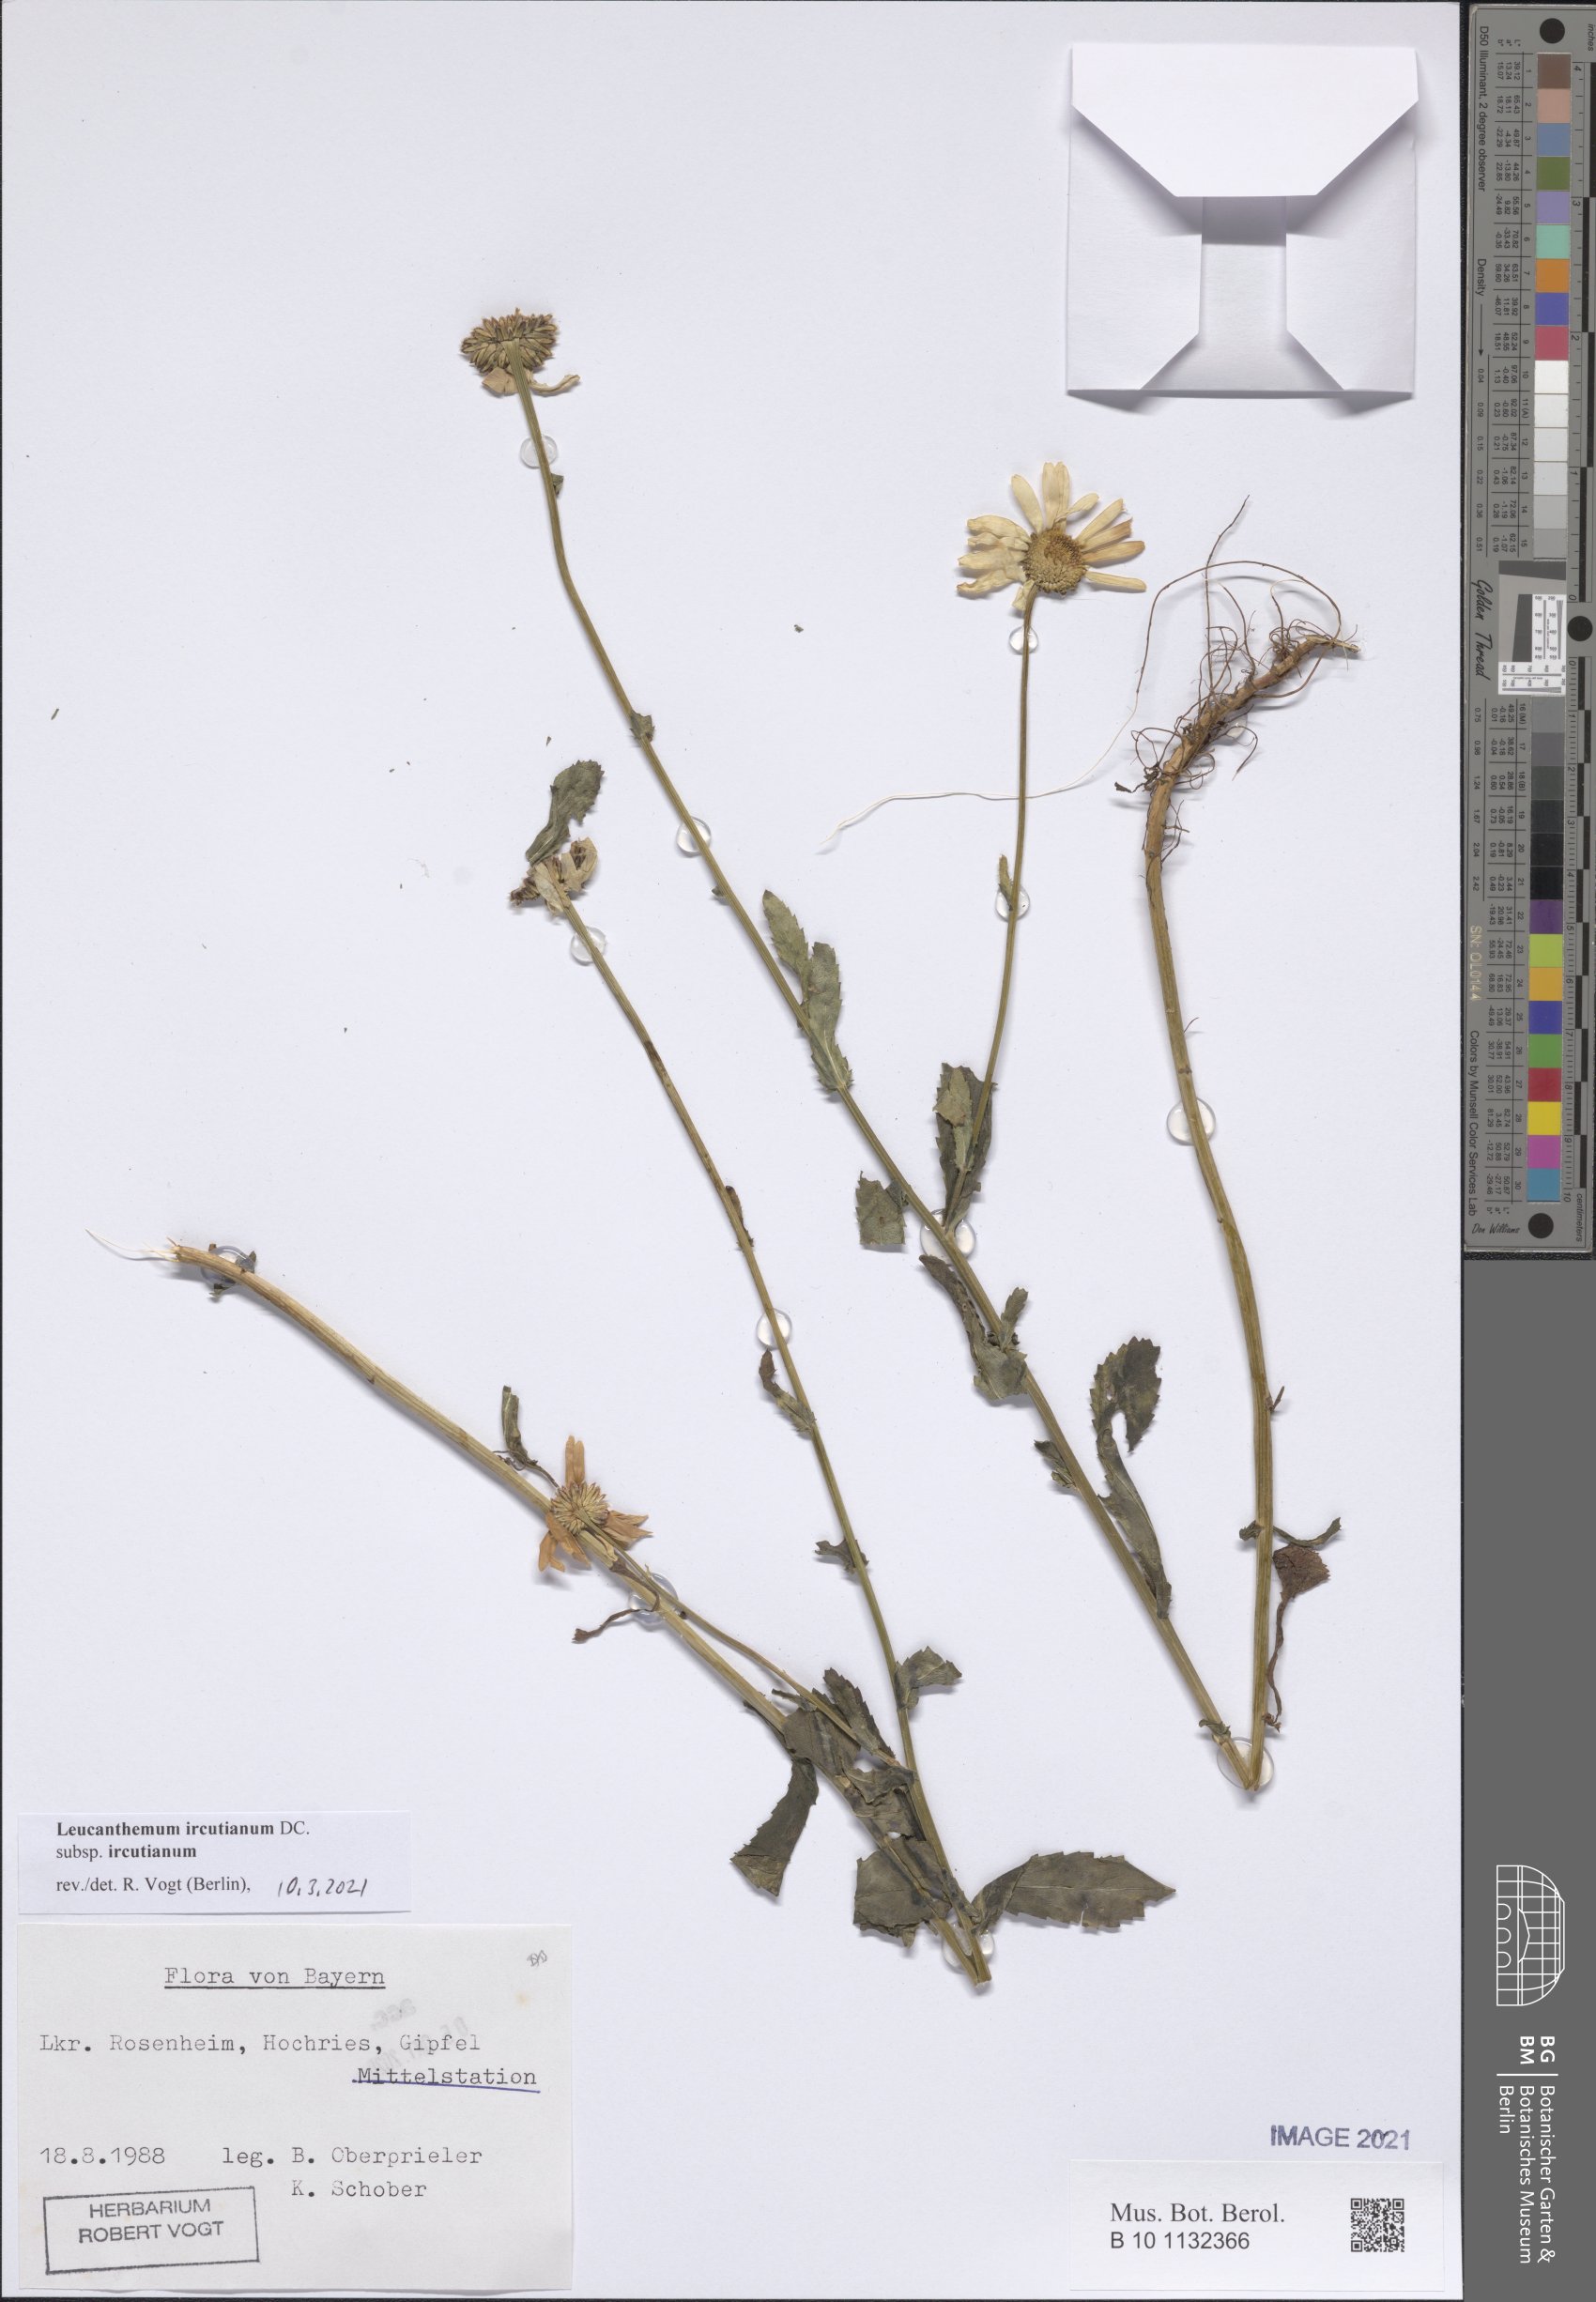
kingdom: Plantae
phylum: Tracheophyta
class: Magnoliopsida
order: Asterales
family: Asteraceae
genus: Leucanthemum
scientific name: Leucanthemum ircutianum
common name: Daisy
